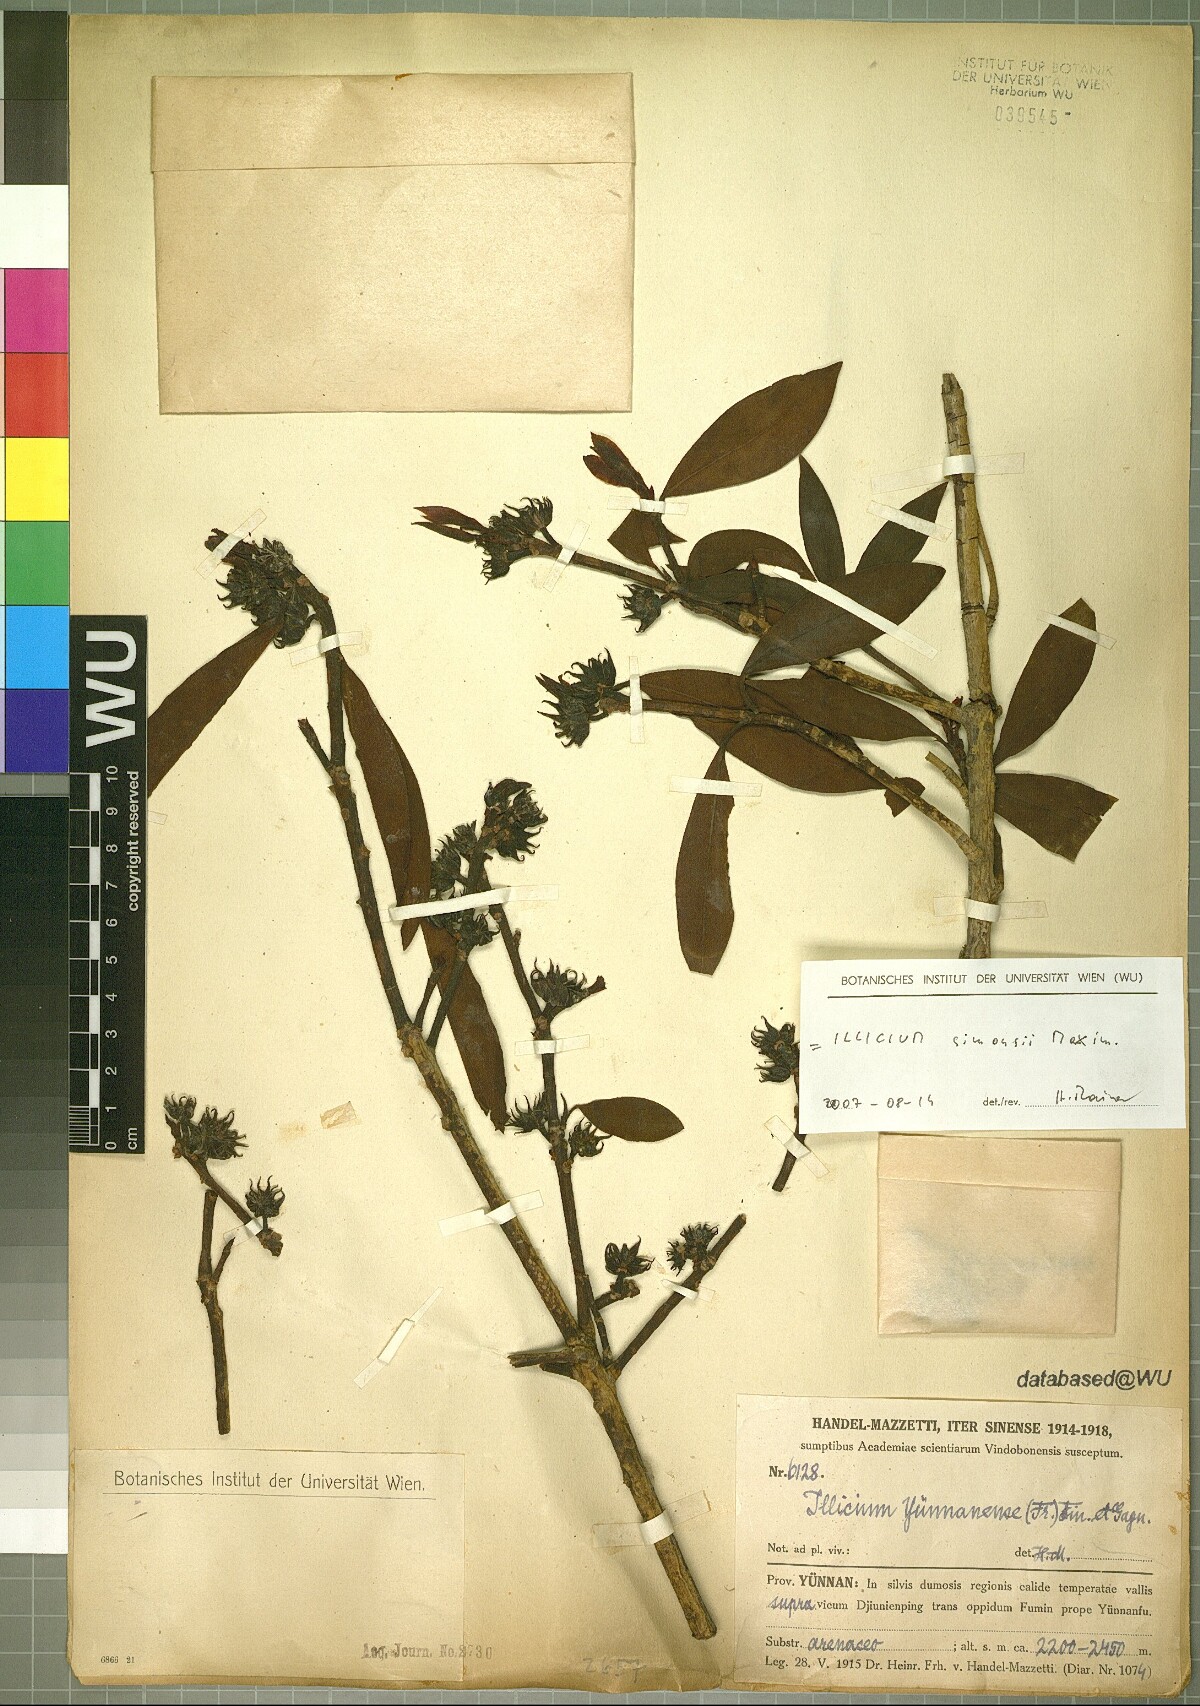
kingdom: Plantae
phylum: Tracheophyta
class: Magnoliopsida
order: Austrobaileyales
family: Schisandraceae
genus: Illicium
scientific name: Illicium simonsii
